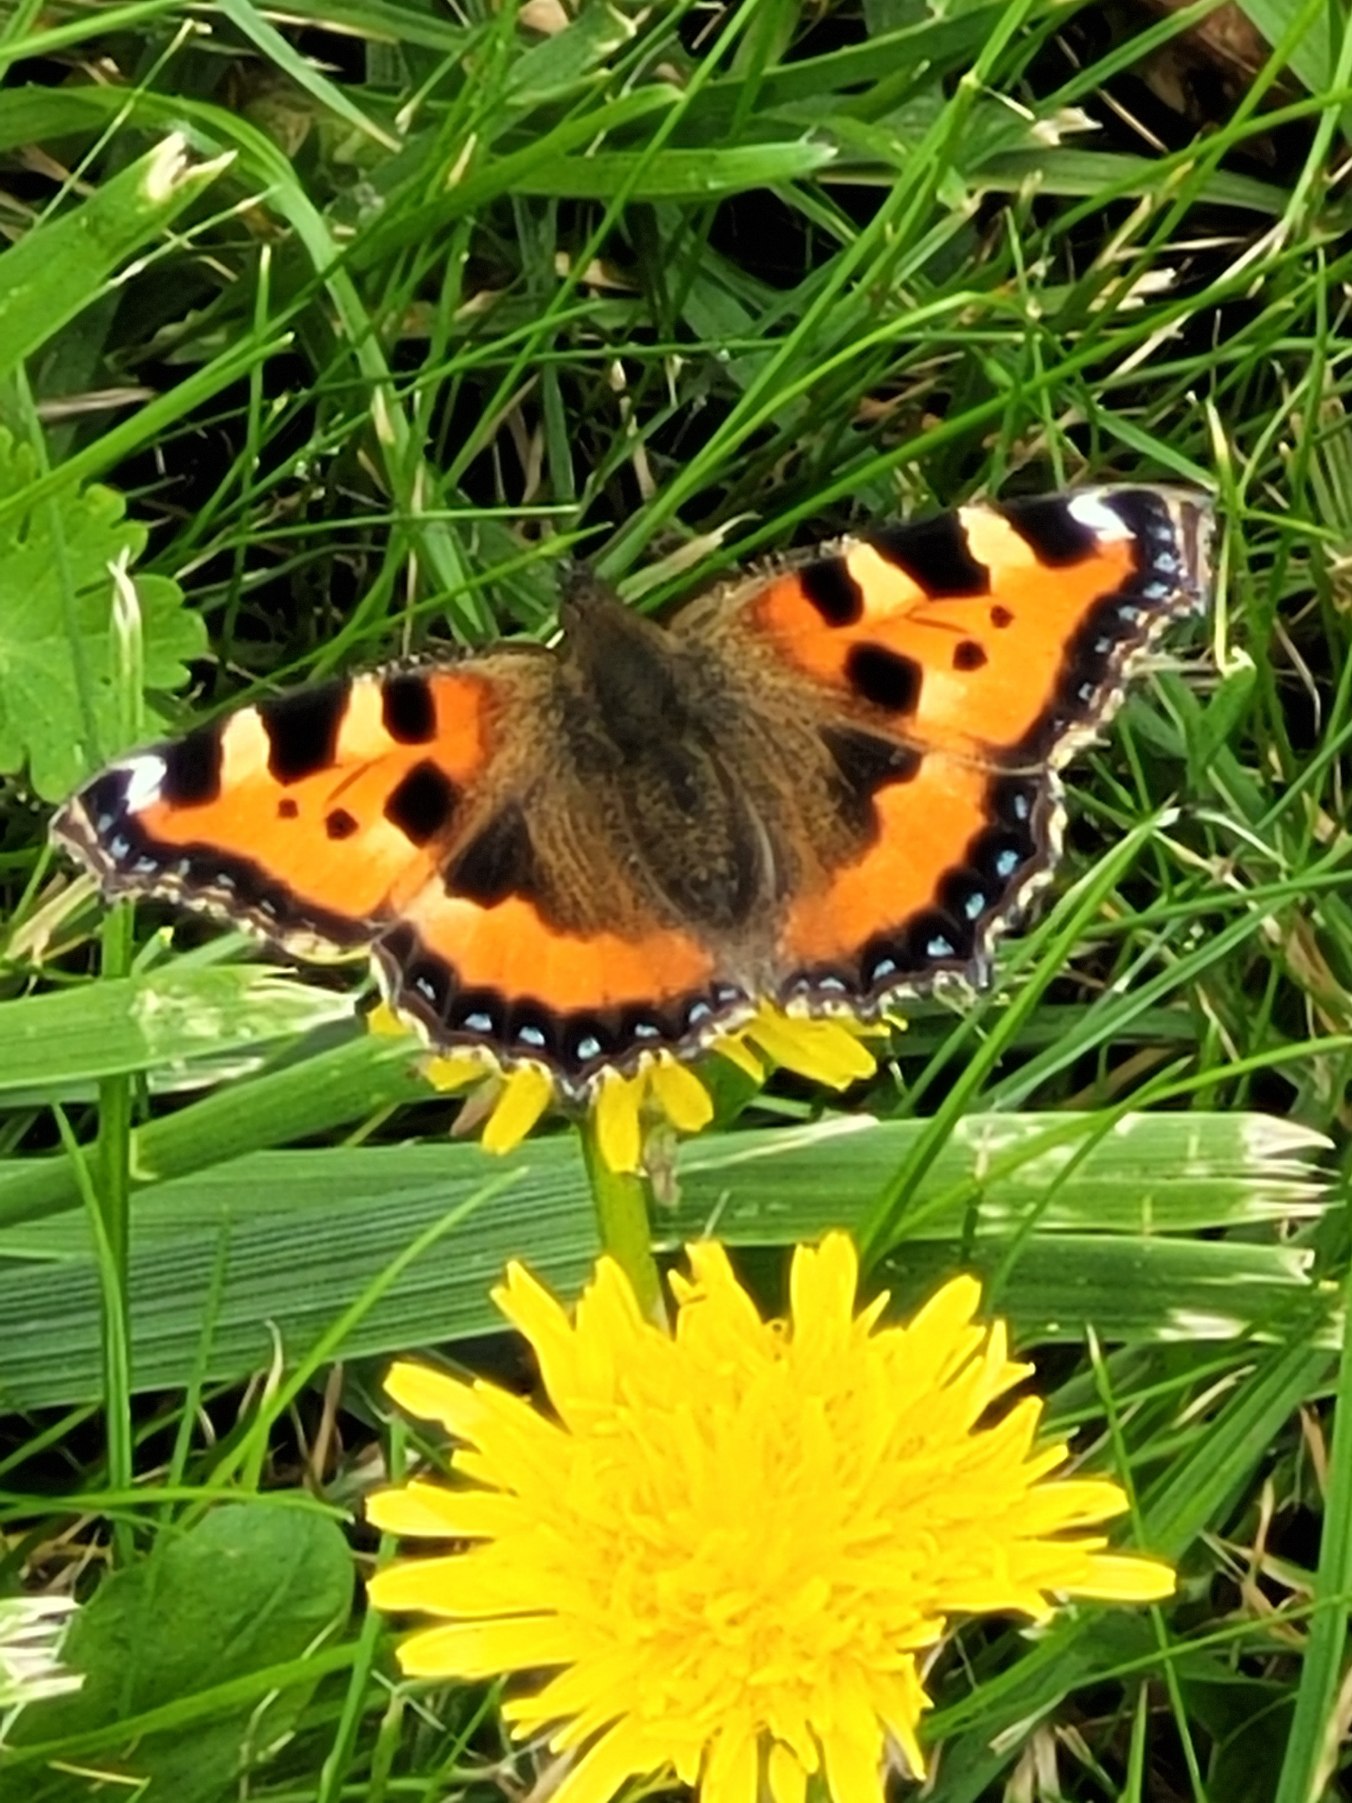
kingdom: Animalia
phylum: Arthropoda
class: Insecta
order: Lepidoptera
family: Nymphalidae
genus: Aglais
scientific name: Aglais urticae
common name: Nældens takvinge
